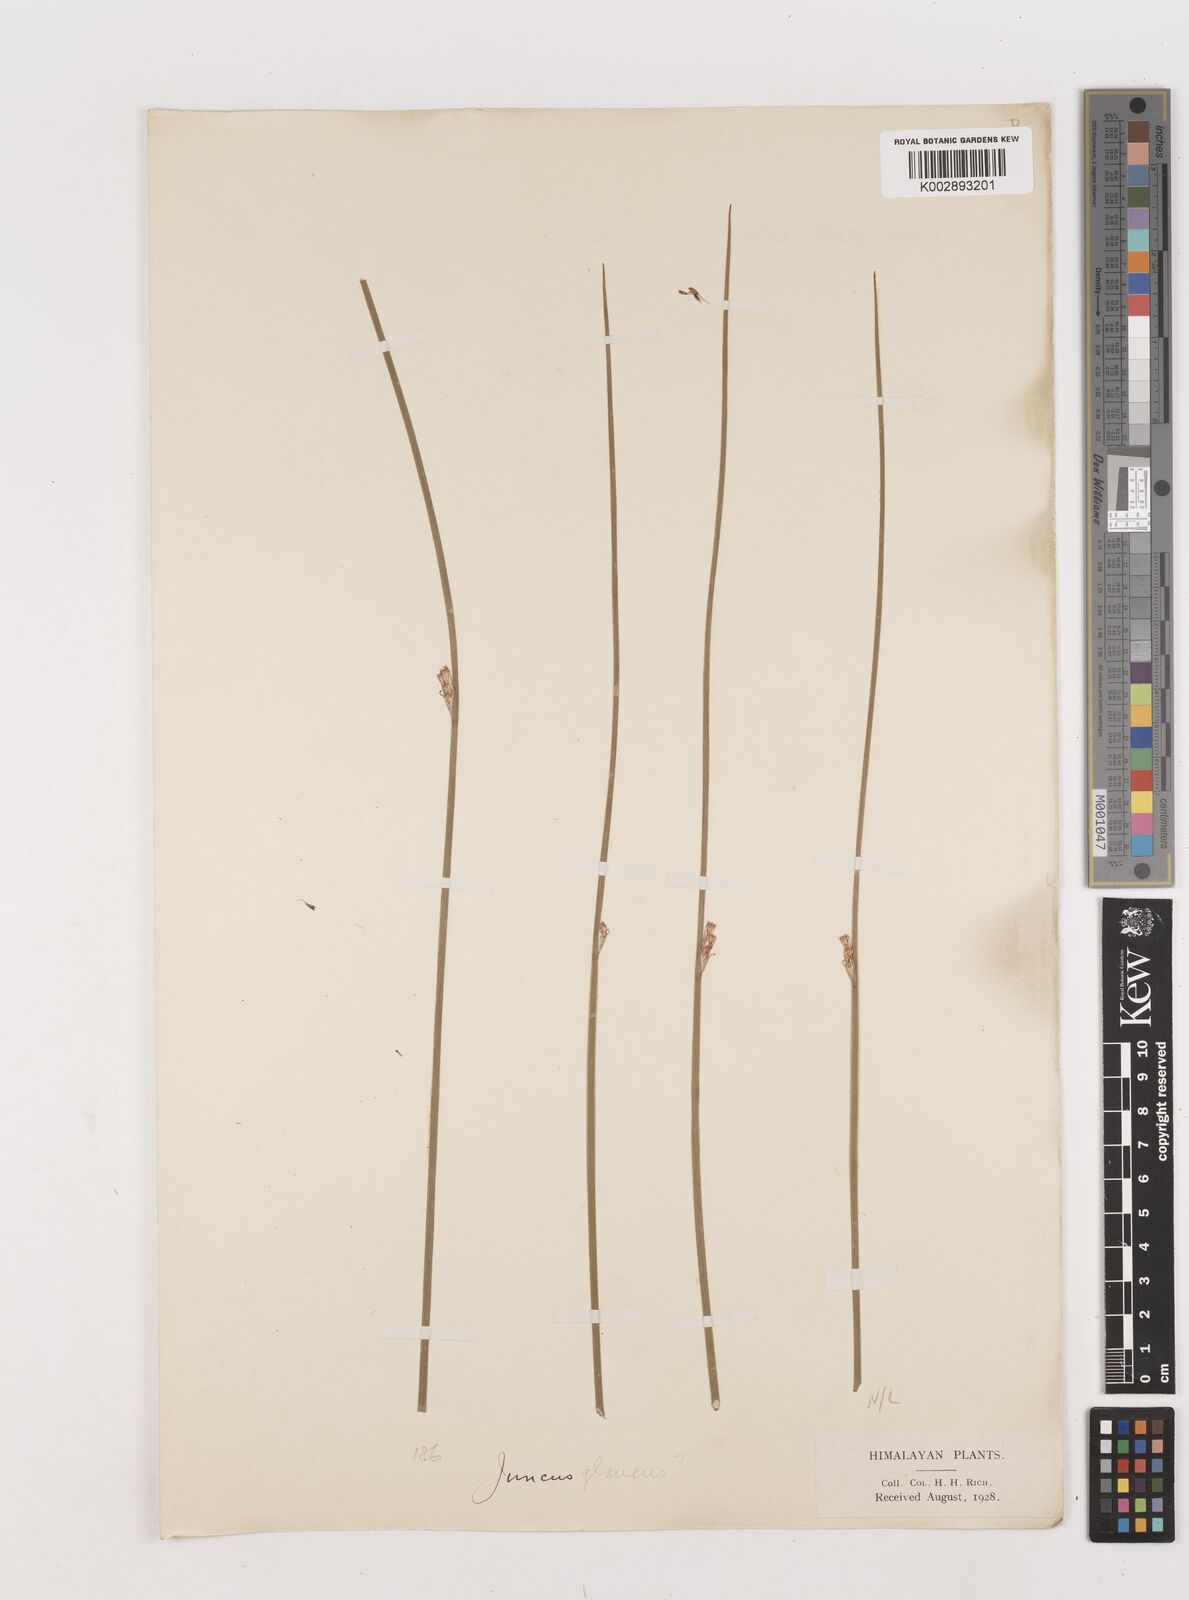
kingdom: Plantae
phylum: Tracheophyta
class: Liliopsida
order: Poales
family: Juncaceae
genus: Juncus
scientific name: Juncus inflexus
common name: Hard rush
